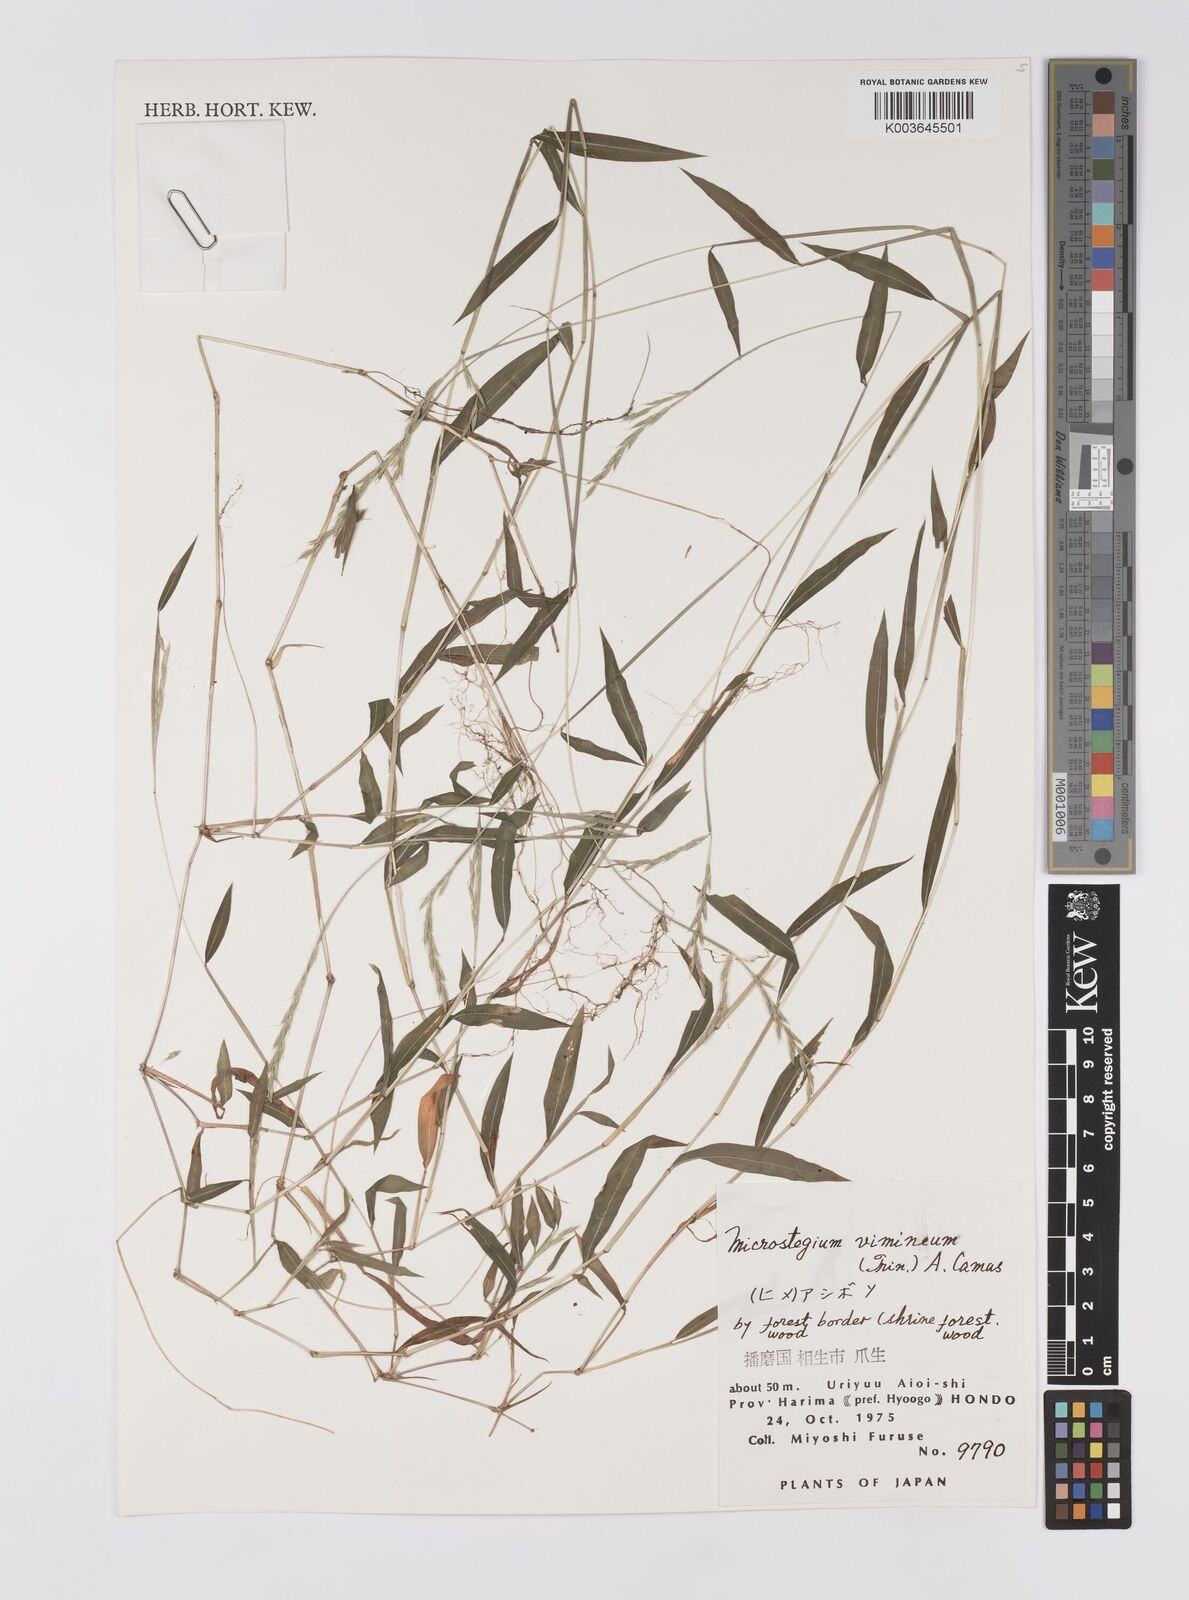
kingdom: Plantae
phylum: Tracheophyta
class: Liliopsida
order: Poales
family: Poaceae
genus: Microstegium
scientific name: Microstegium vimineum
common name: Japanese stiltgrass
